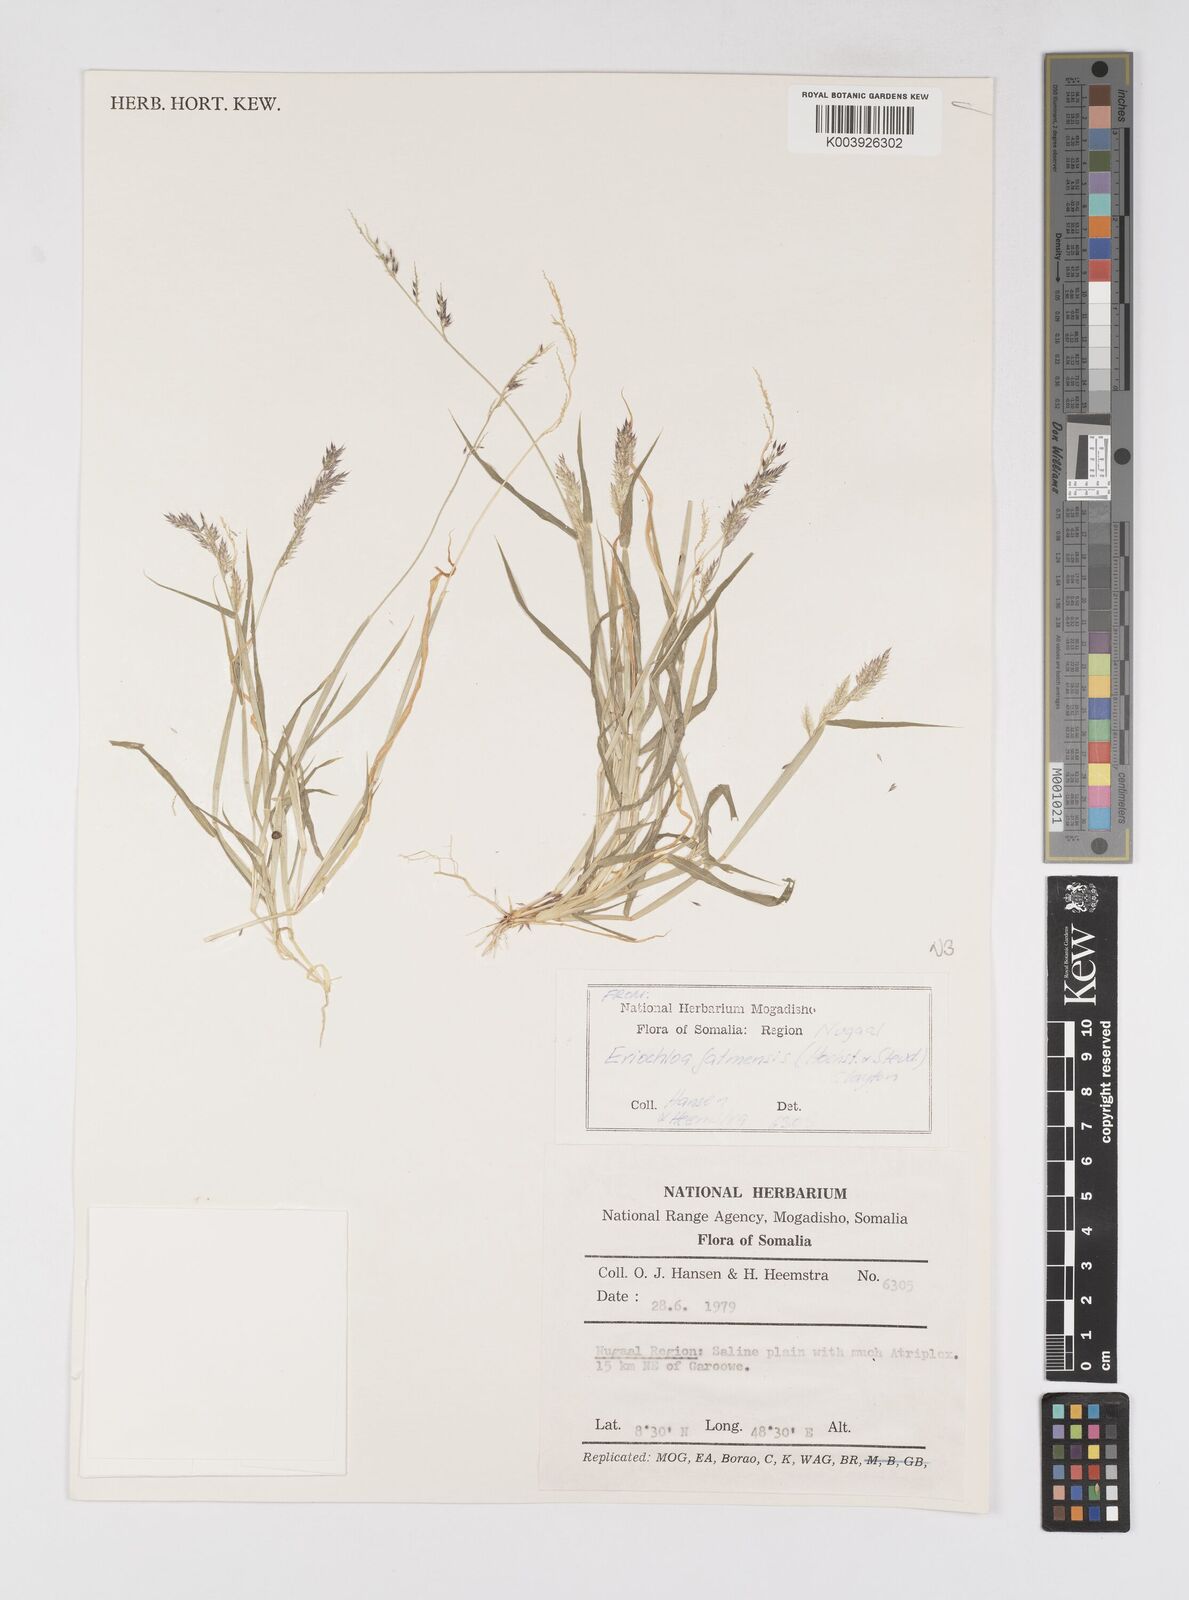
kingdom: Plantae
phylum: Tracheophyta
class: Liliopsida
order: Poales
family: Poaceae
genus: Eriochloa
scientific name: Eriochloa barbatus
